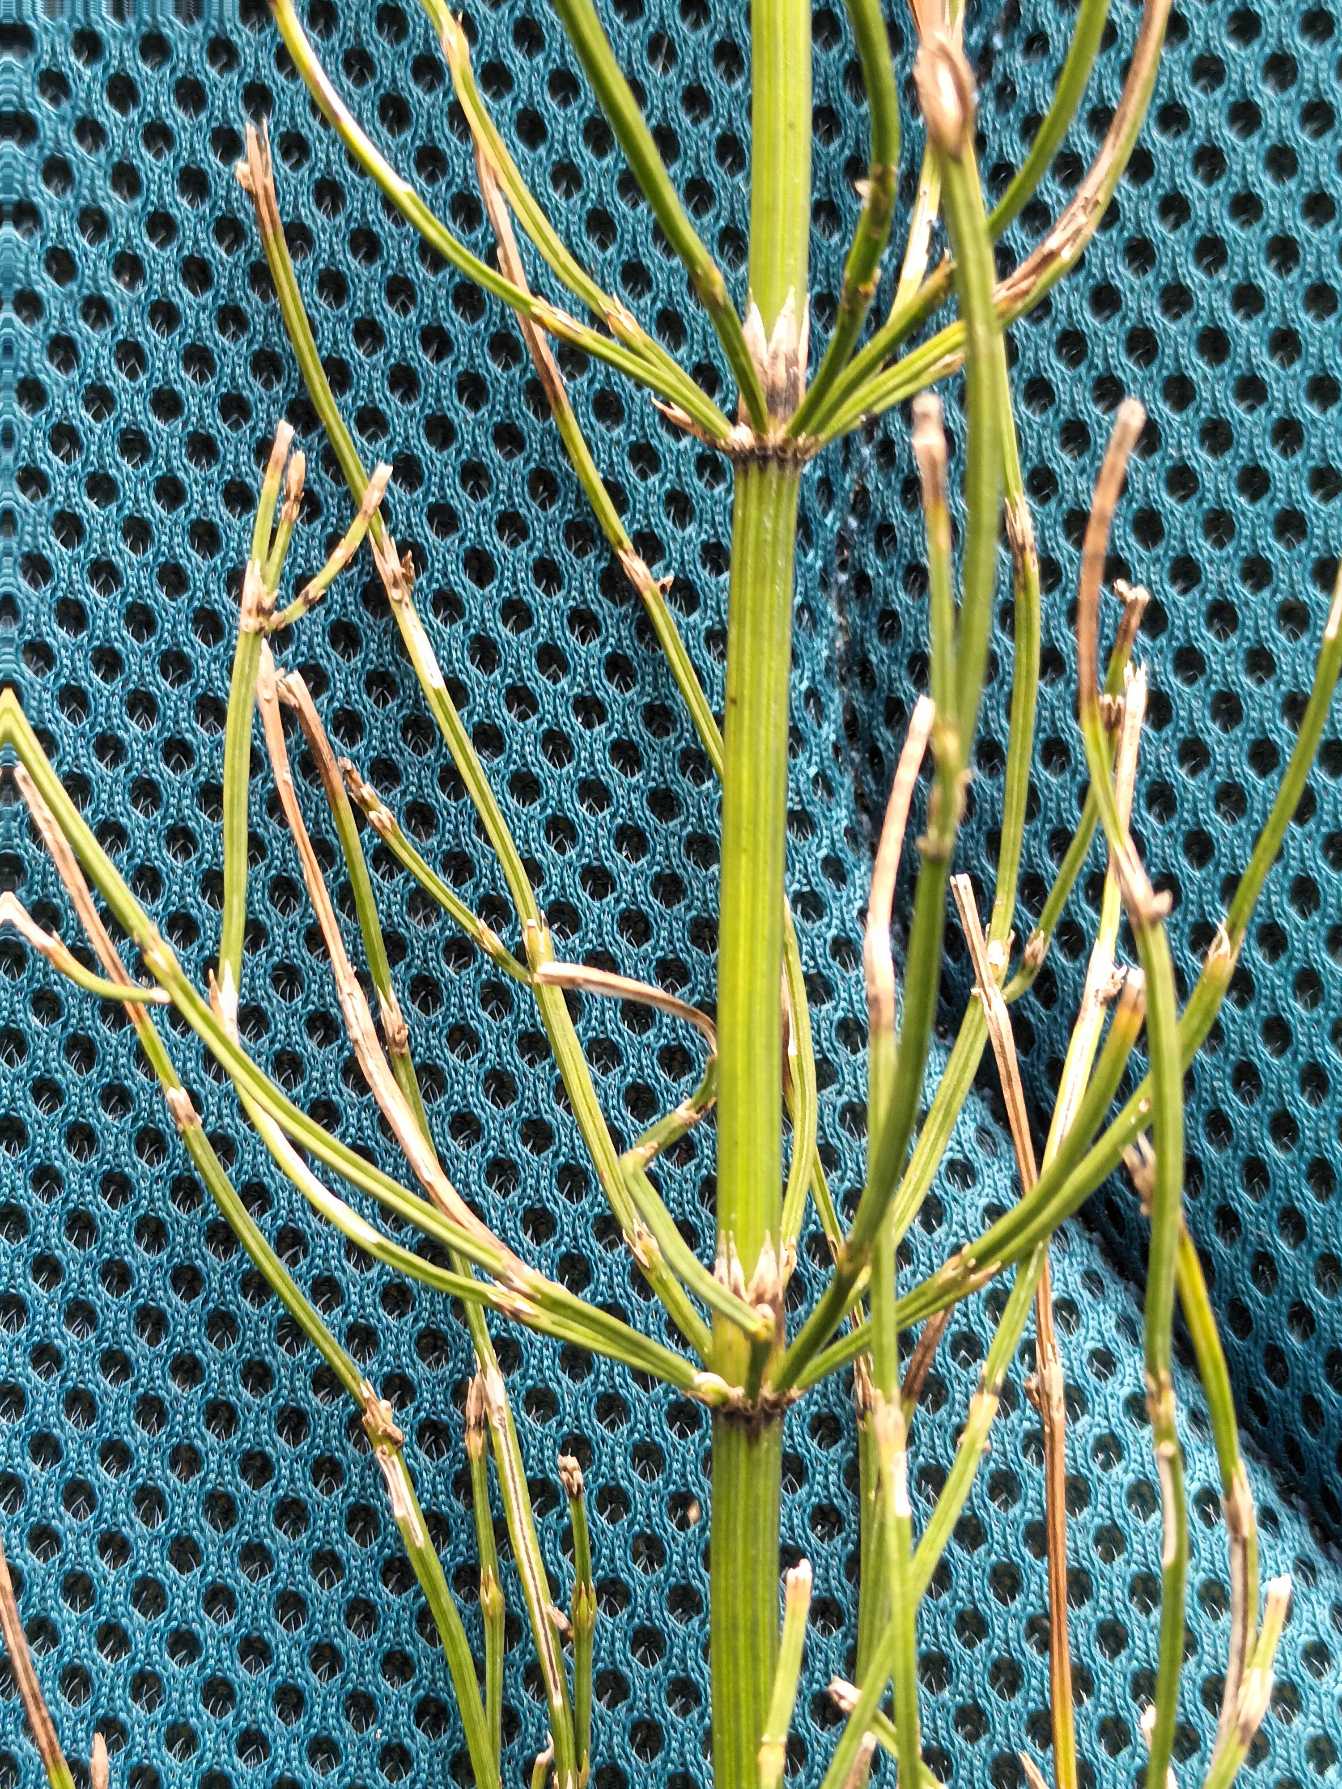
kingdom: Plantae
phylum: Tracheophyta
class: Polypodiopsida
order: Equisetales
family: Equisetaceae
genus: Equisetum
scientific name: Equisetum
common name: Padderokslægten
